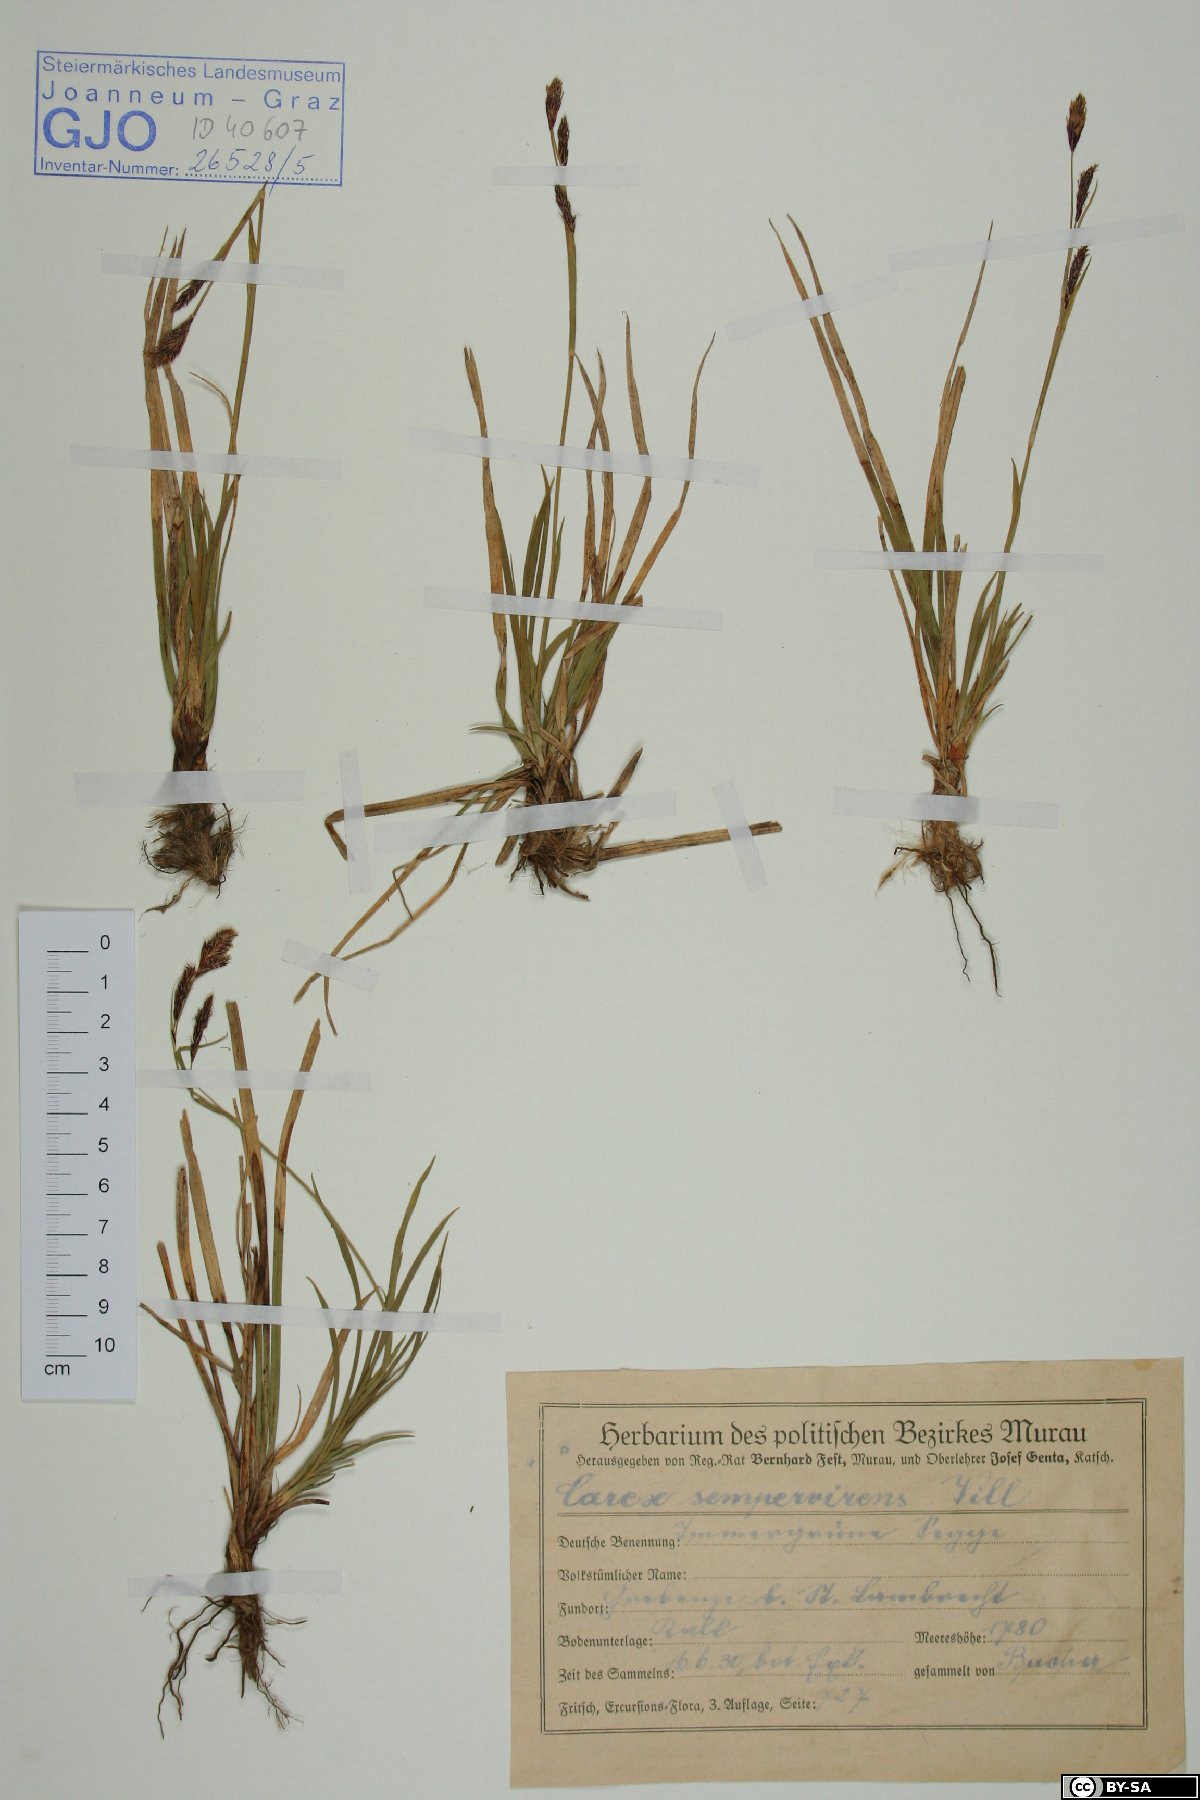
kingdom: Plantae
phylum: Tracheophyta
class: Liliopsida
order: Poales
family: Cyperaceae
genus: Carex
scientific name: Carex sempervirens
